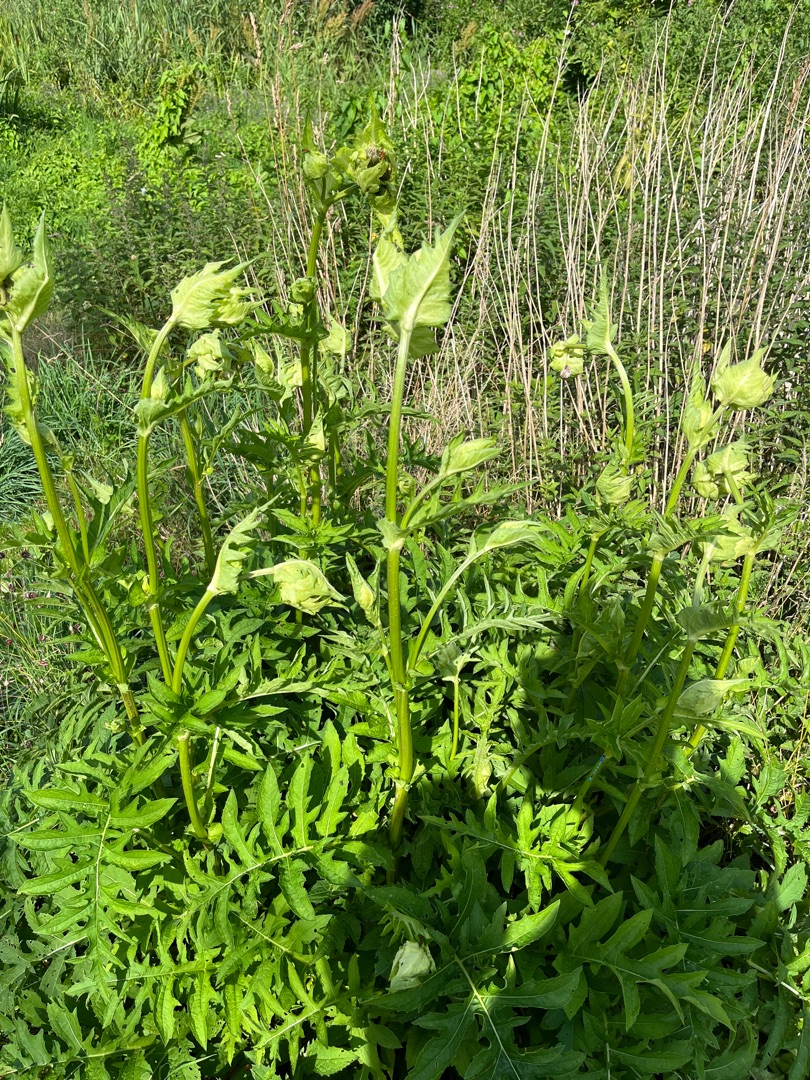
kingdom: Plantae
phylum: Tracheophyta
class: Magnoliopsida
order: Asterales
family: Asteraceae
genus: Cirsium
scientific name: Cirsium oleraceum
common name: Kål-tidsel
